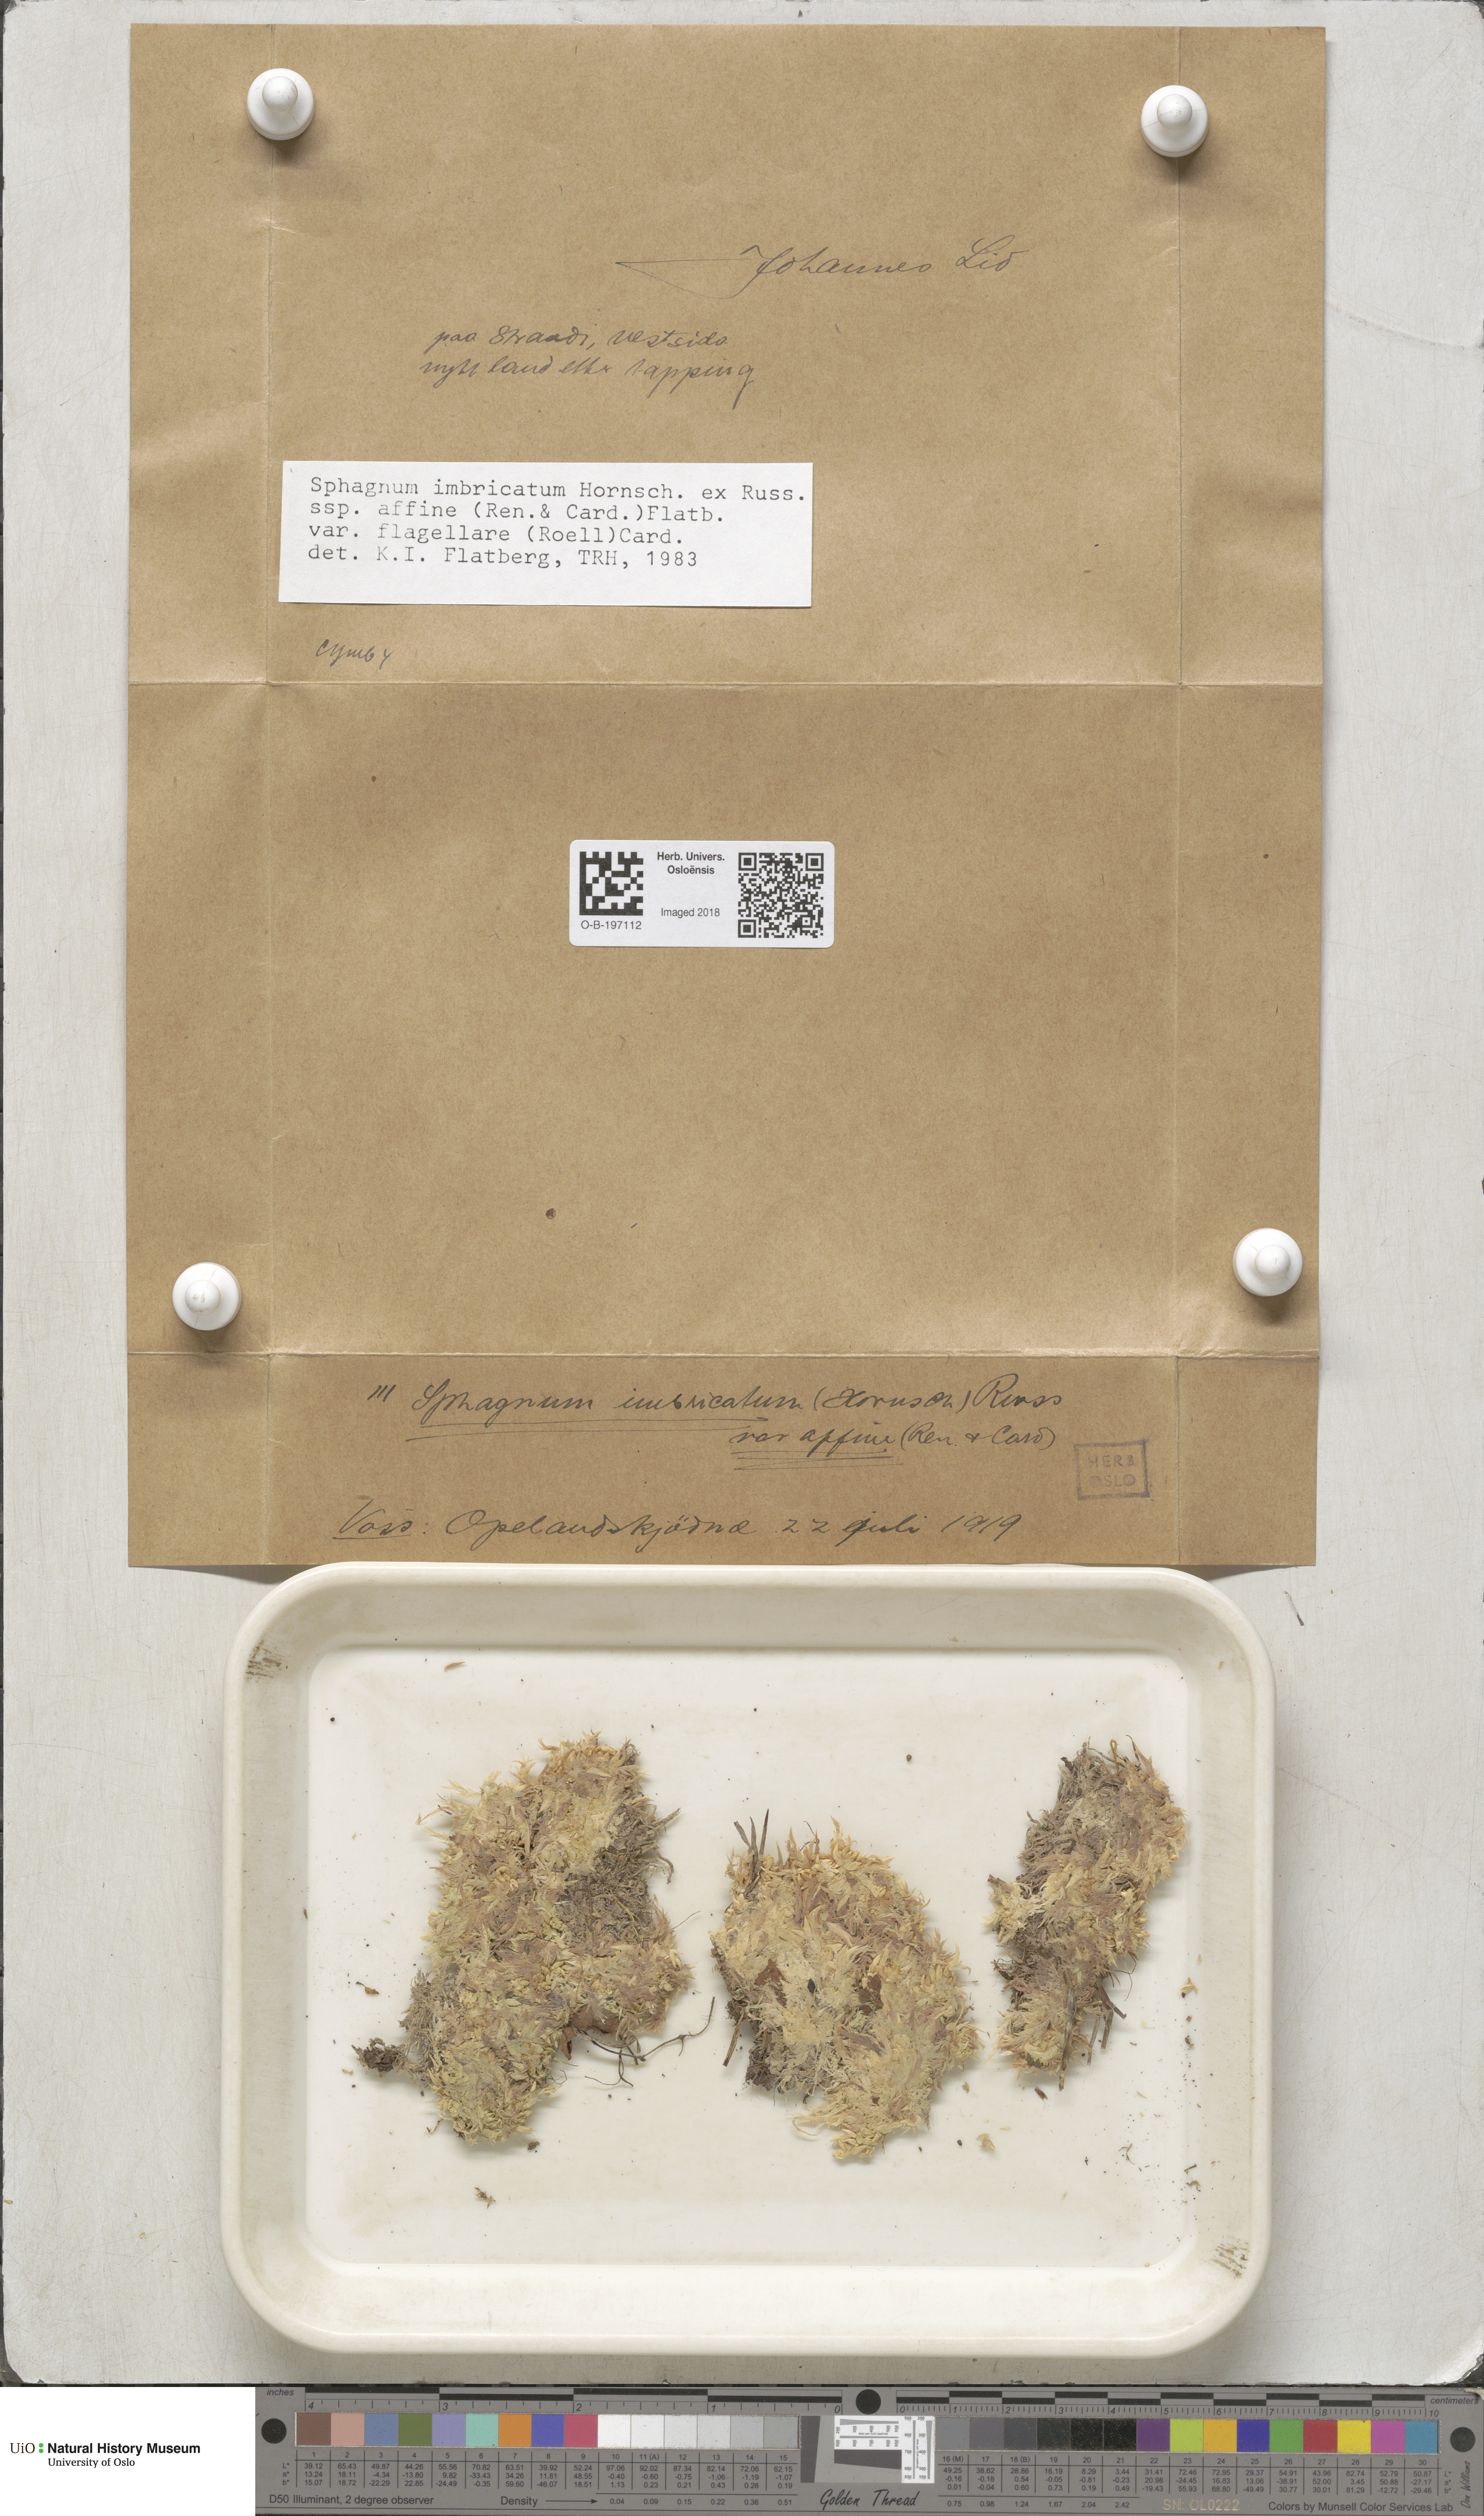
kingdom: Plantae
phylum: Bryophyta
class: Sphagnopsida
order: Sphagnales
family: Sphagnaceae
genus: Sphagnum
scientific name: Sphagnum affine
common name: Imbricate peat moss
